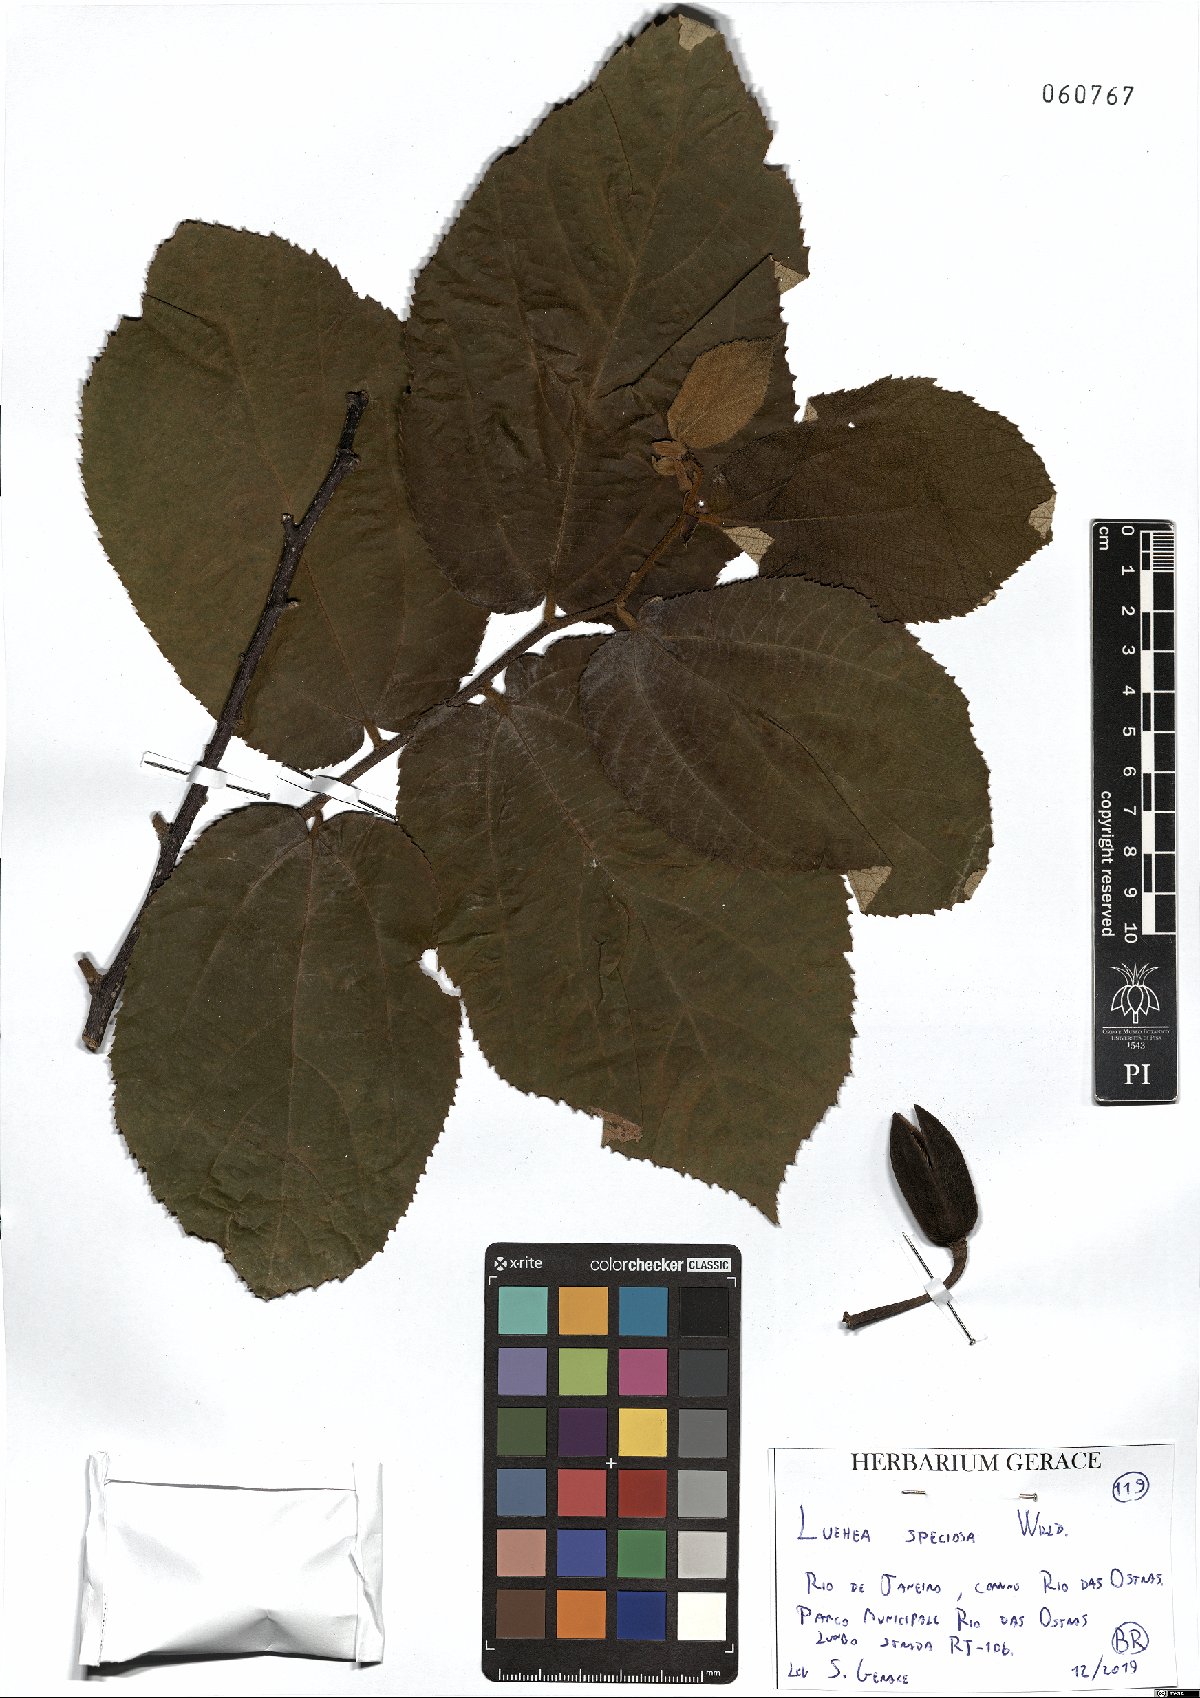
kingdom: Plantae
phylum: Tracheophyta
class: Magnoliopsida
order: Malvales
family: Malvaceae
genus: Luehea
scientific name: Luehea speciosa
